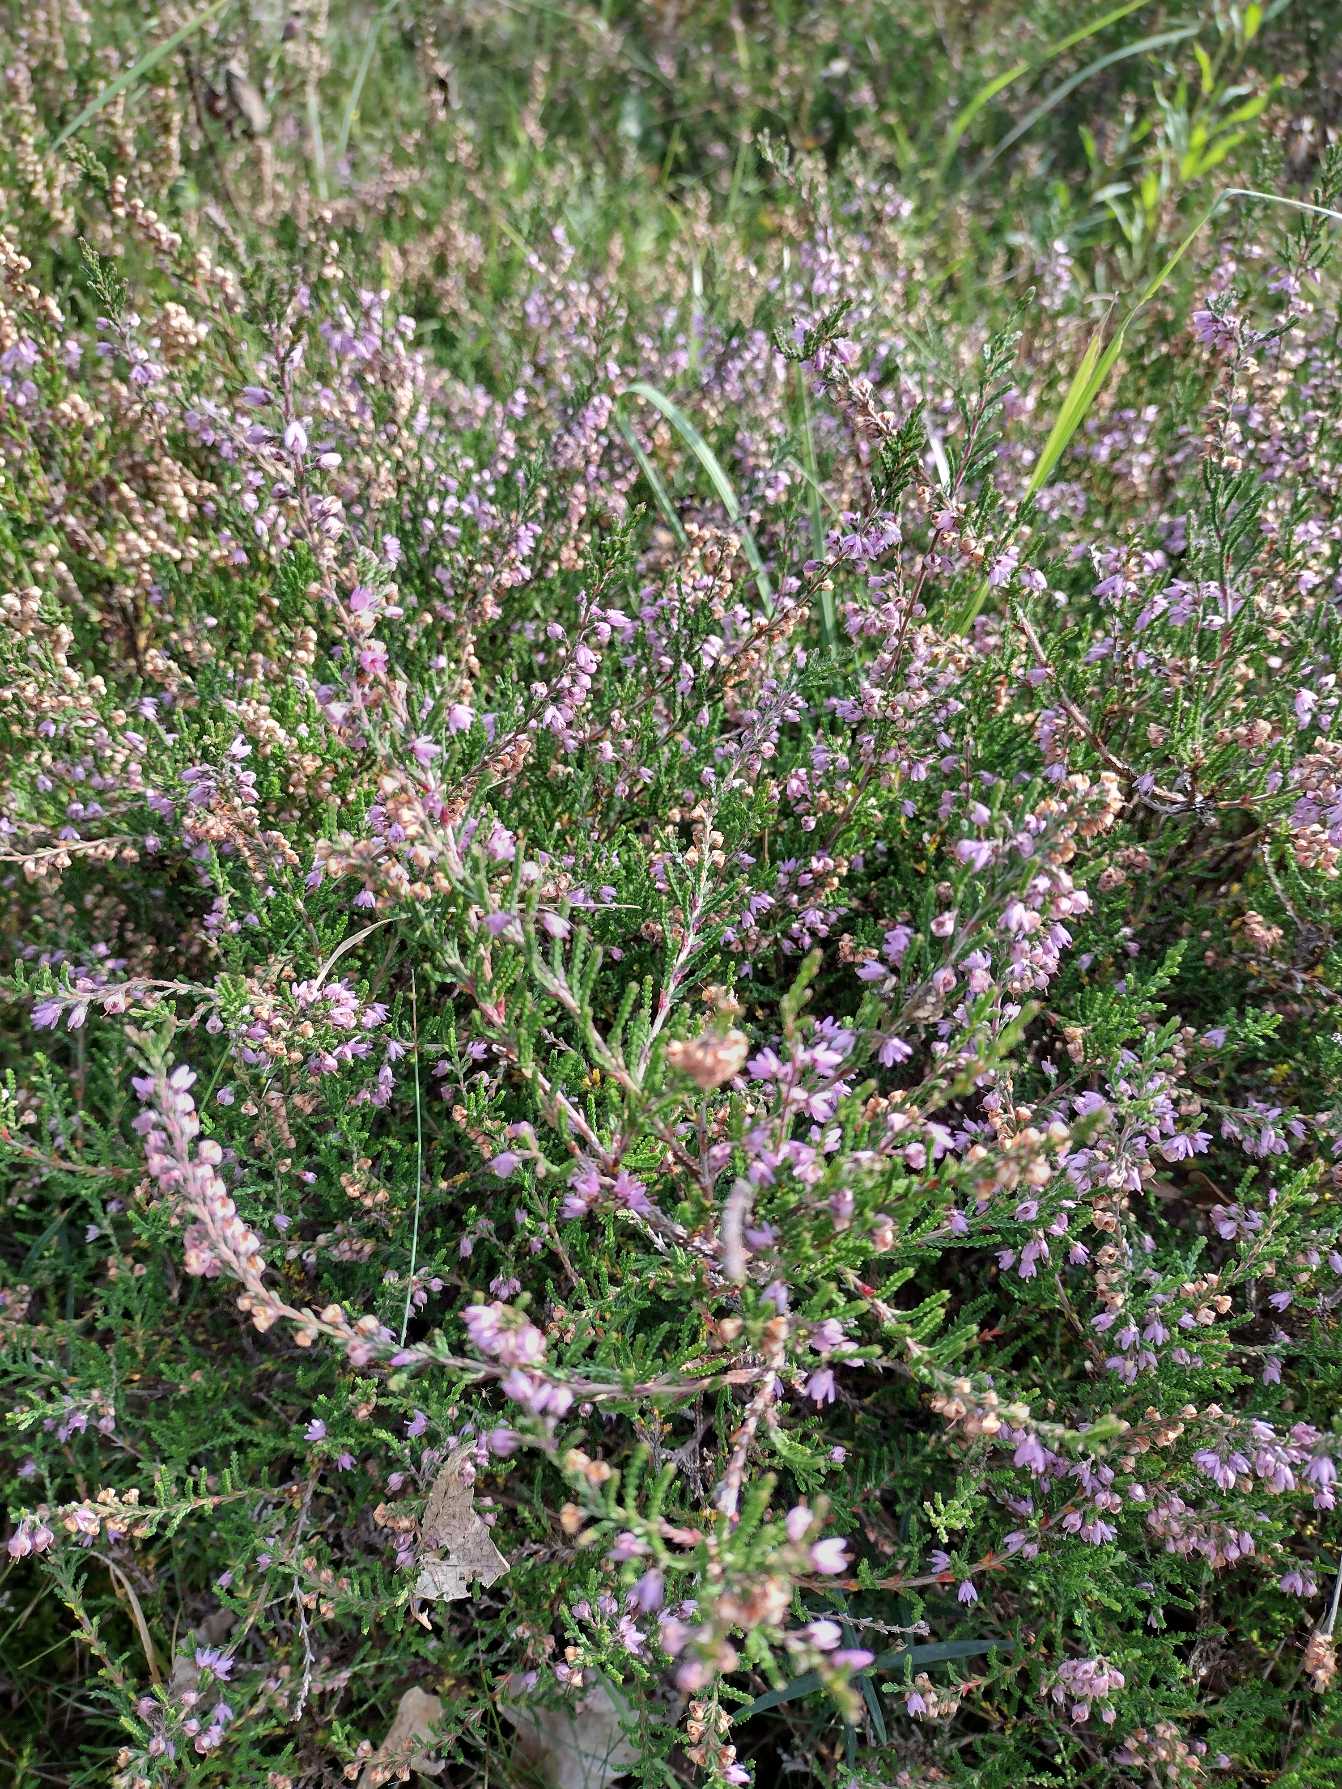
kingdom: Plantae
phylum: Tracheophyta
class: Magnoliopsida
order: Ericales
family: Ericaceae
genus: Calluna
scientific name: Calluna vulgaris
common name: Hedelyng
